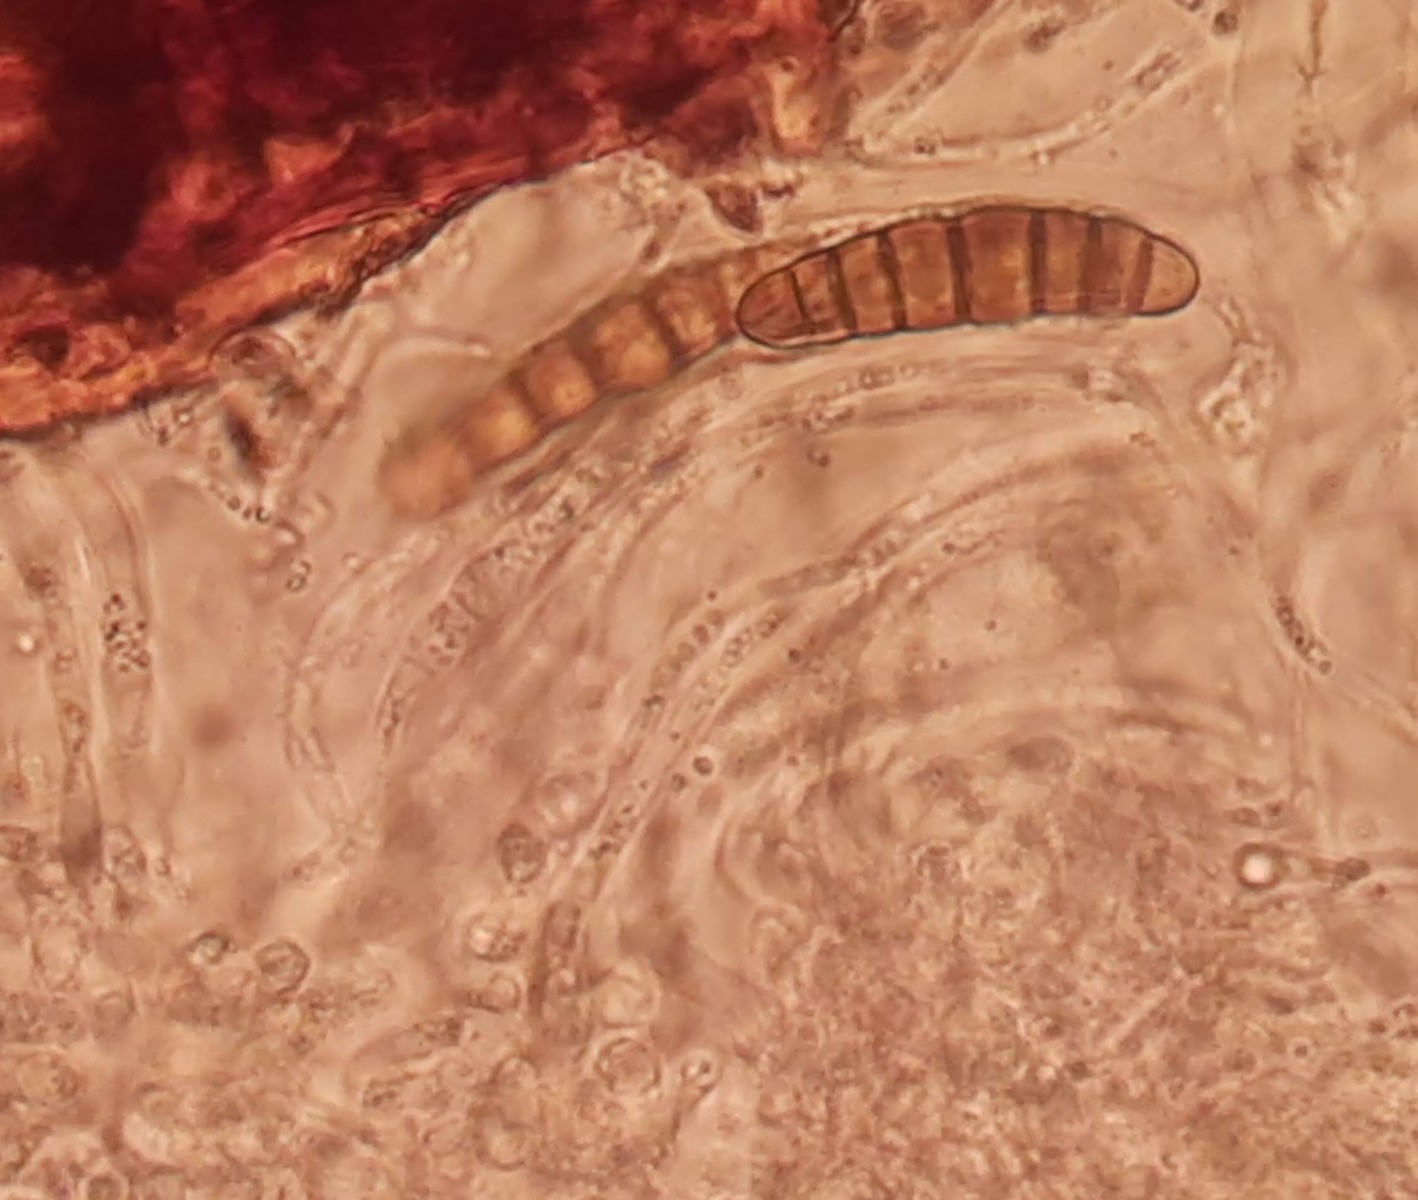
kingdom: Fungi
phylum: Ascomycota
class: Dothideomycetes
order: Pleosporales
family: Thyridariaceae
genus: Thyridaria
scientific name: Thyridaria macrostomoides
